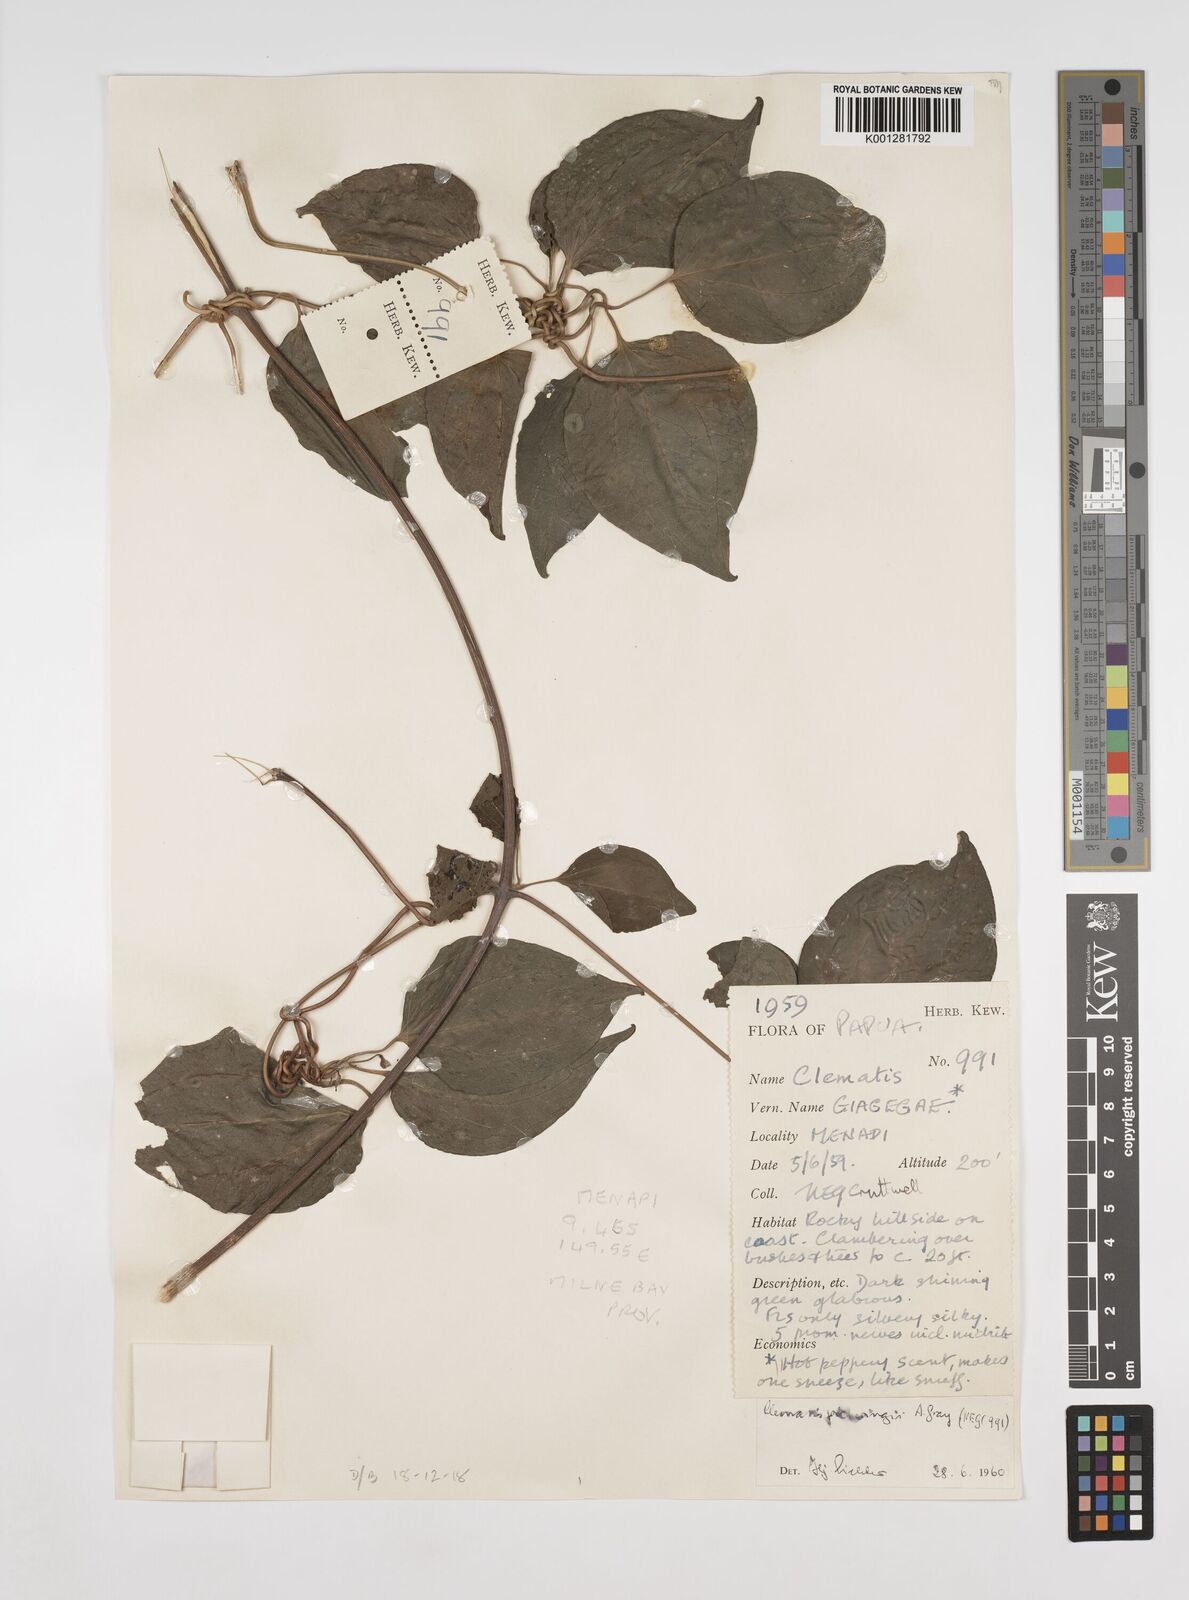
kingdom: Plantae
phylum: Tracheophyta
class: Magnoliopsida
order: Ranunculales
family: Ranunculaceae
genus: Clematis
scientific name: Clematis pickeringii
